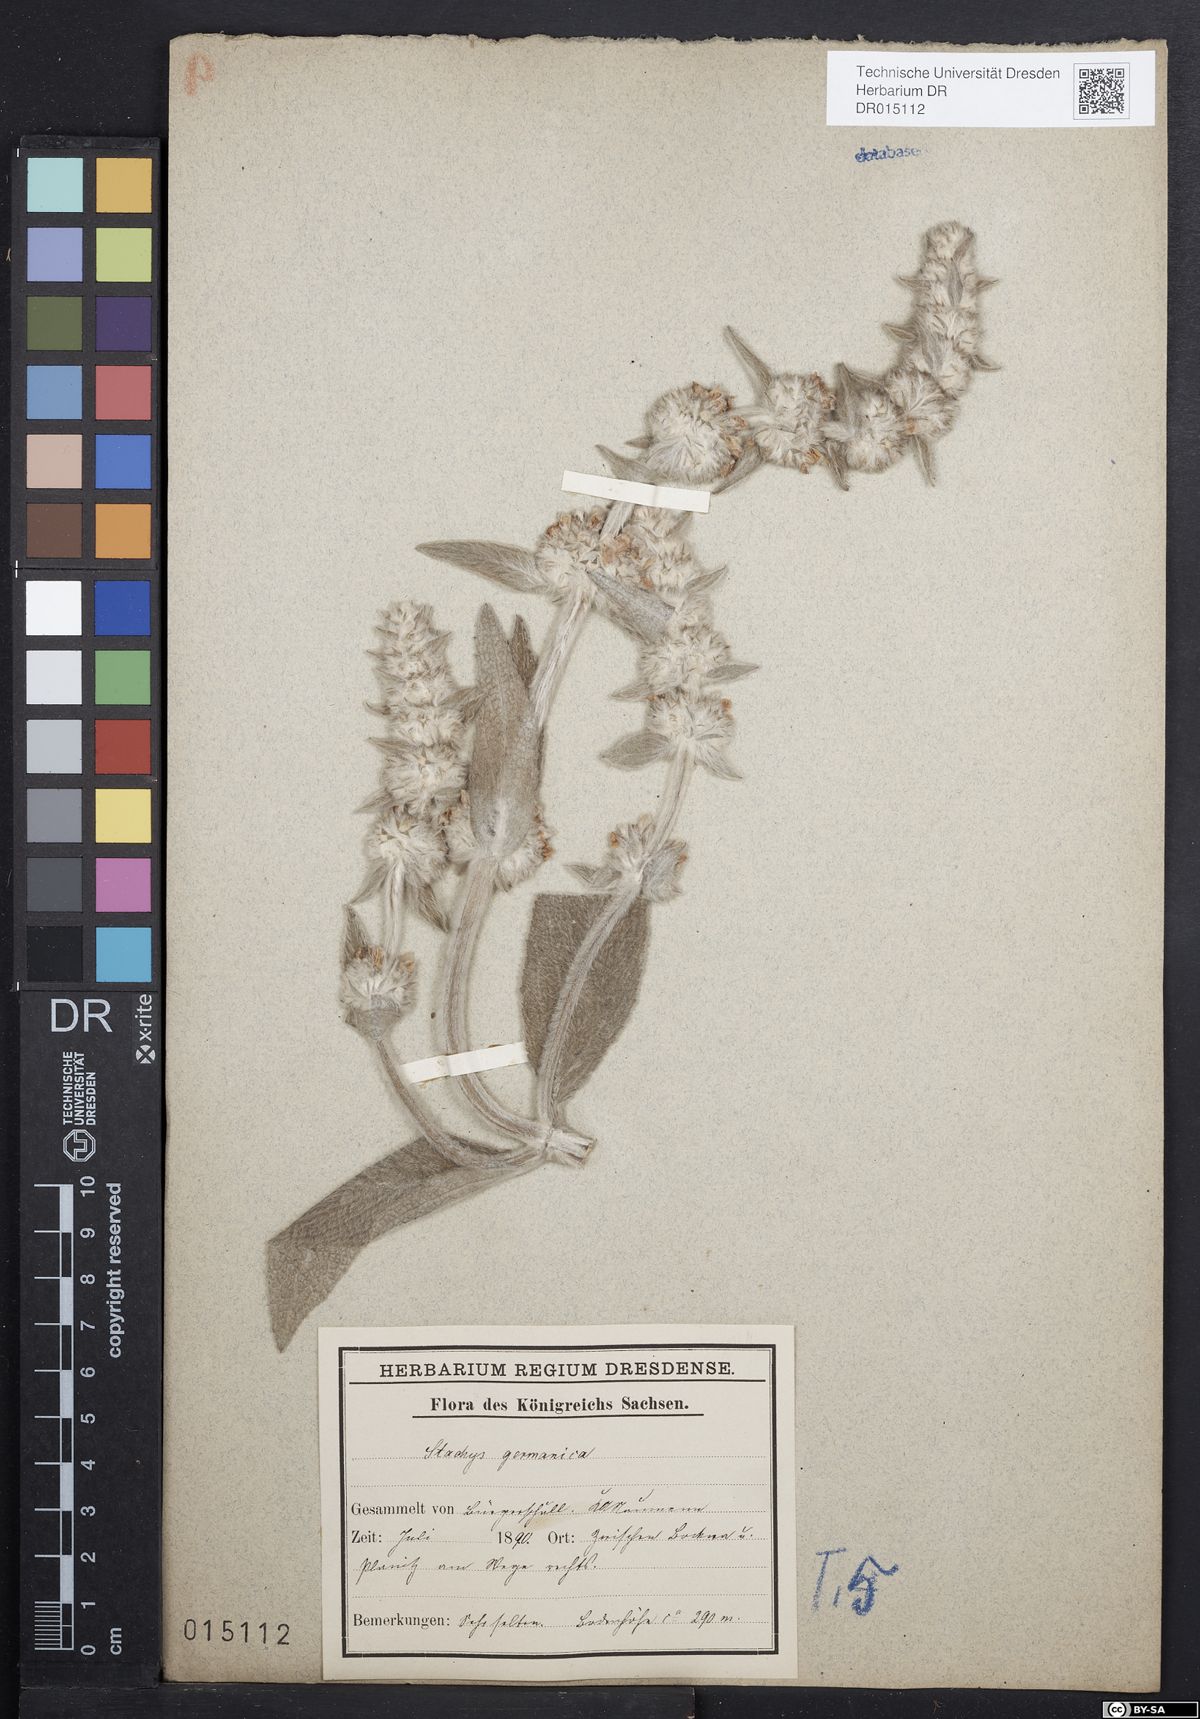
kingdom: Plantae
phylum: Tracheophyta
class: Magnoliopsida
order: Lamiales
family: Lamiaceae
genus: Stachys
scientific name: Stachys germanica
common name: Downy woundwort
